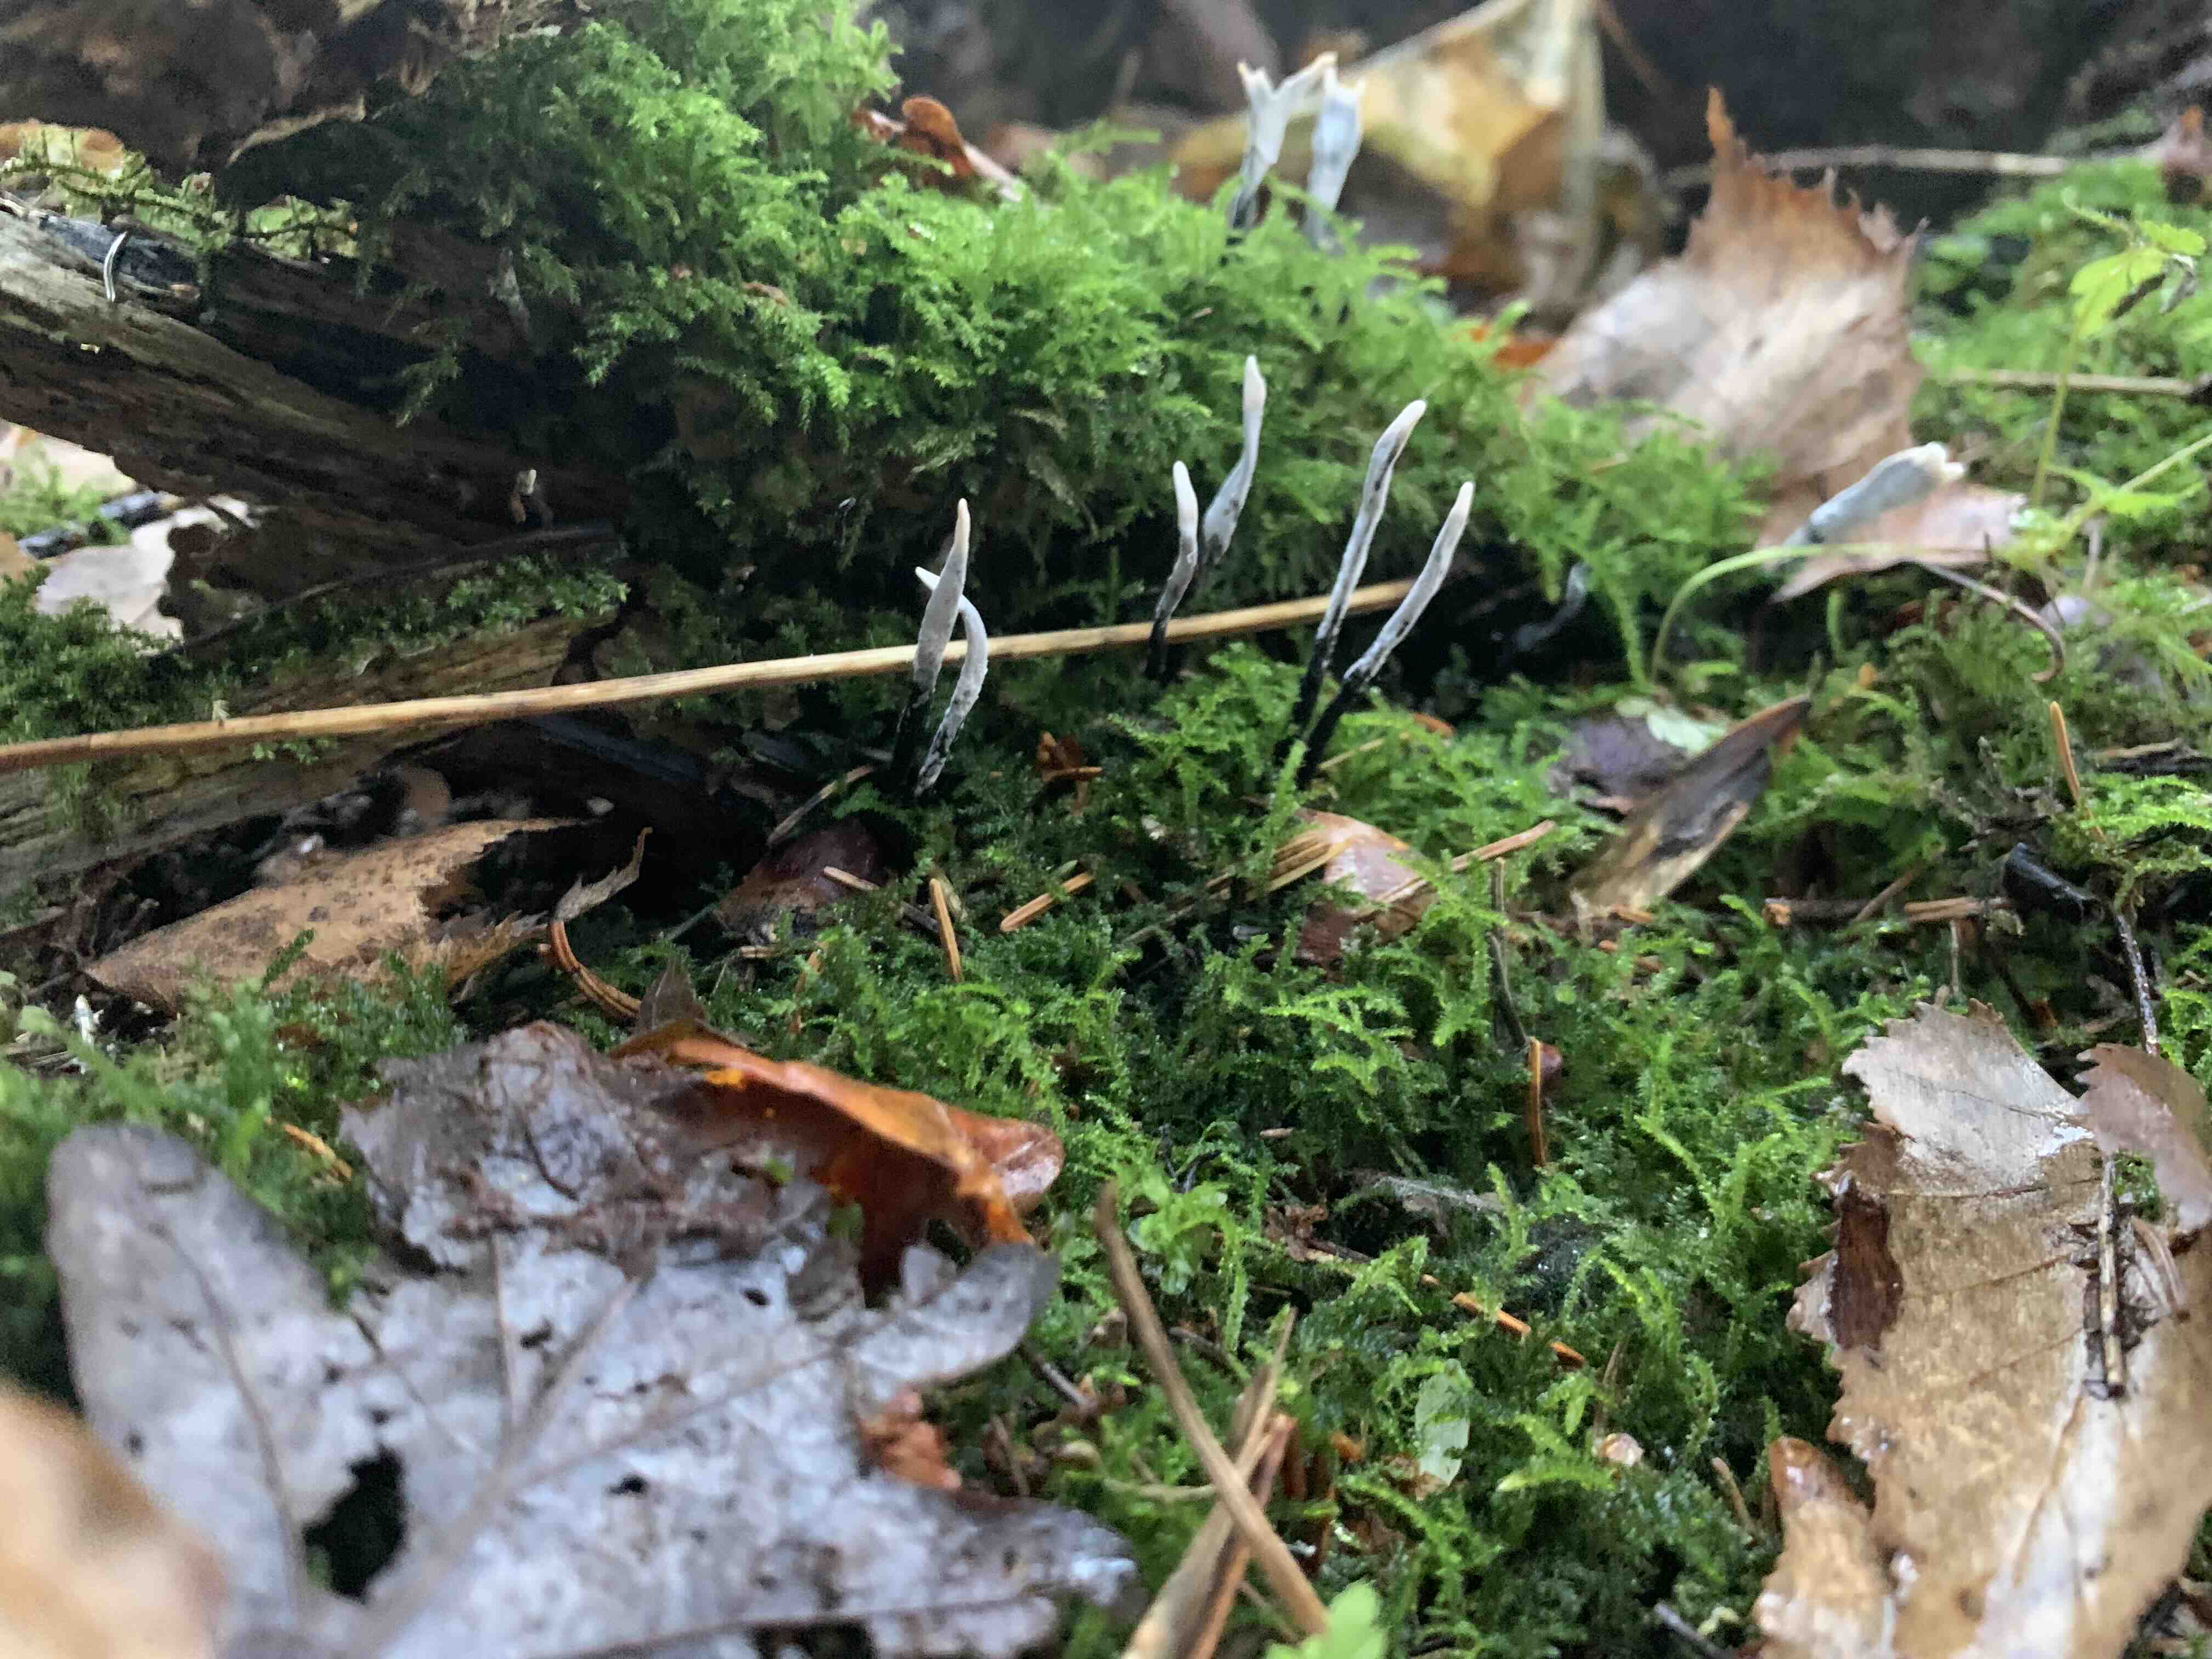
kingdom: Fungi
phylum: Ascomycota
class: Sordariomycetes
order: Xylariales
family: Xylariaceae
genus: Xylaria
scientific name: Xylaria hypoxylon
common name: grenet stødsvamp
